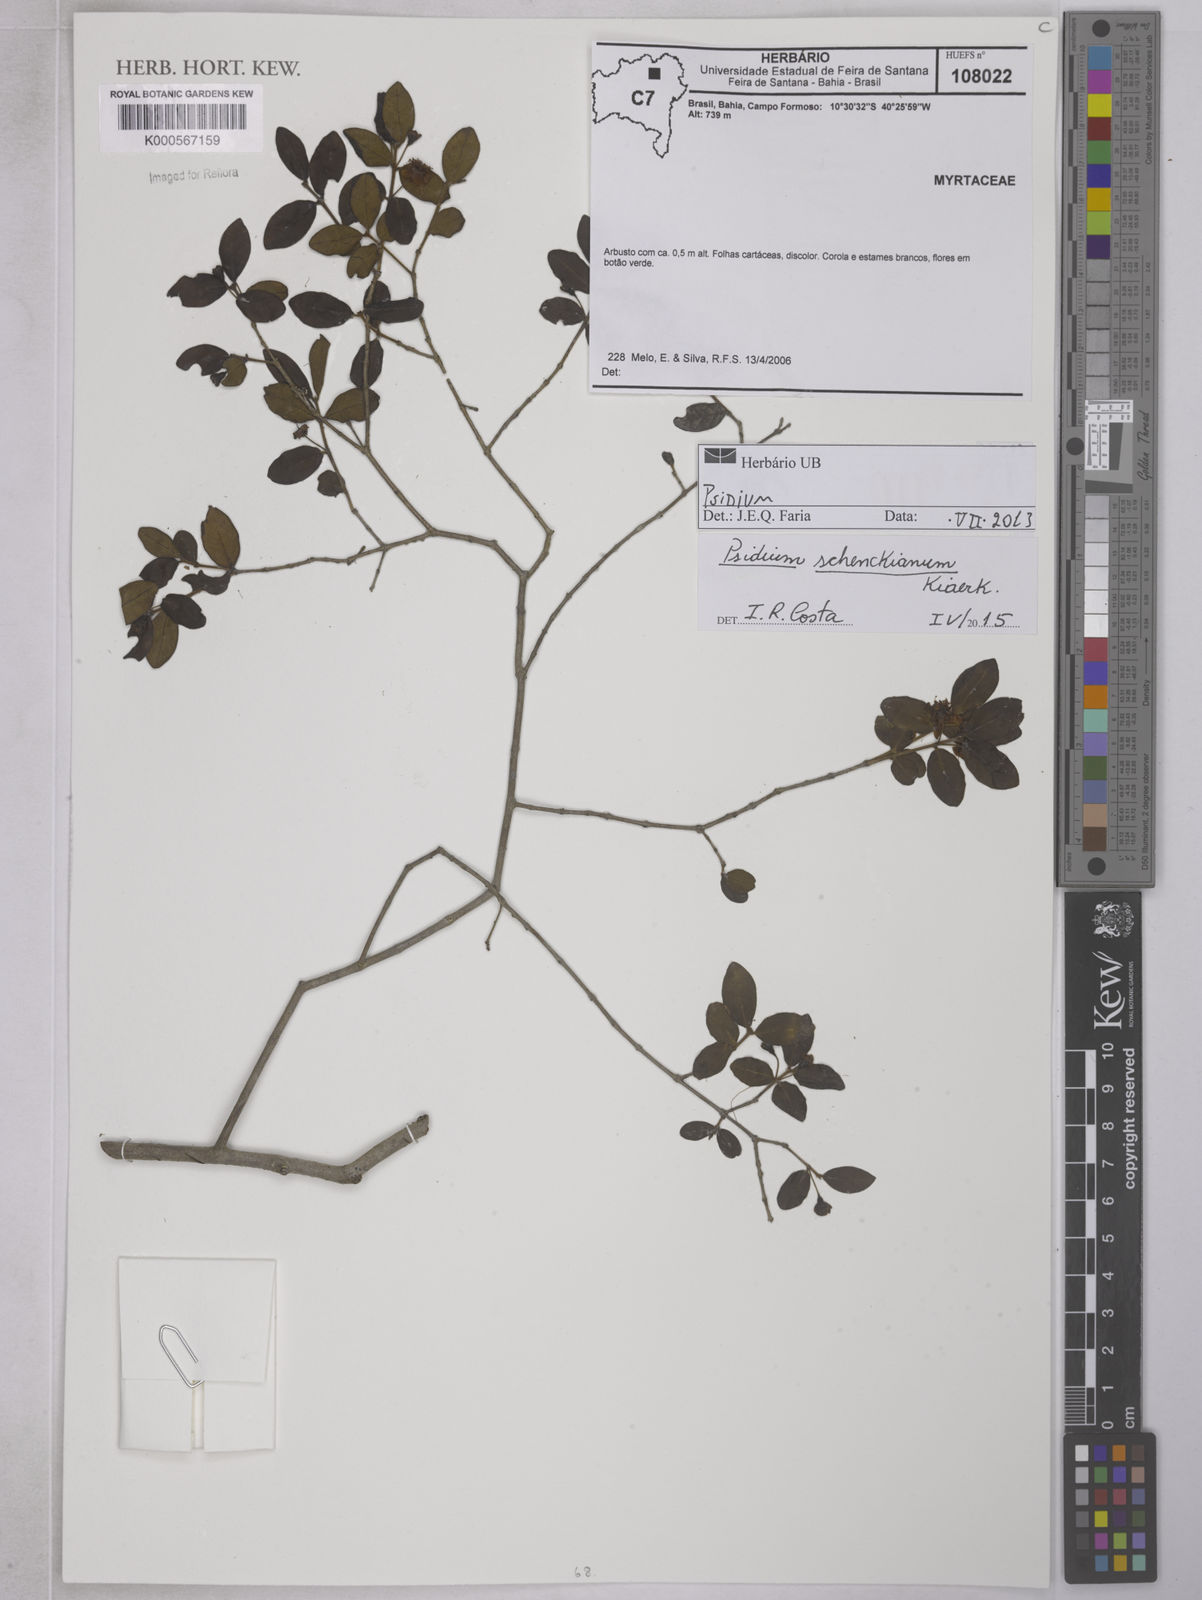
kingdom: Plantae
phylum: Tracheophyta
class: Magnoliopsida
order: Myrtales
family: Myrtaceae
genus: Psidium
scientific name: Psidium schenckianum
